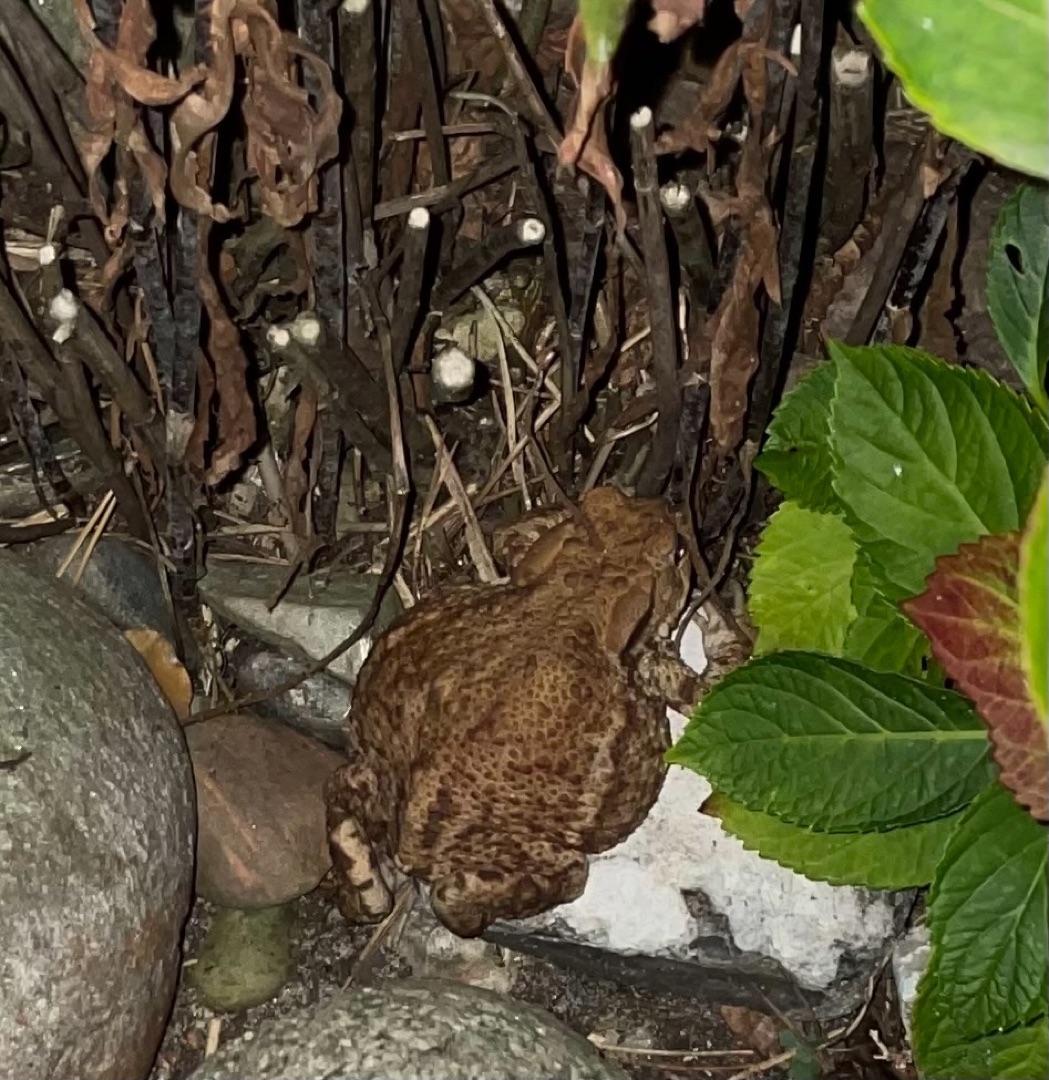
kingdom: Animalia
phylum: Chordata
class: Amphibia
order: Anura
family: Bufonidae
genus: Bufo
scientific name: Bufo bufo
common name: Skrubtudse
